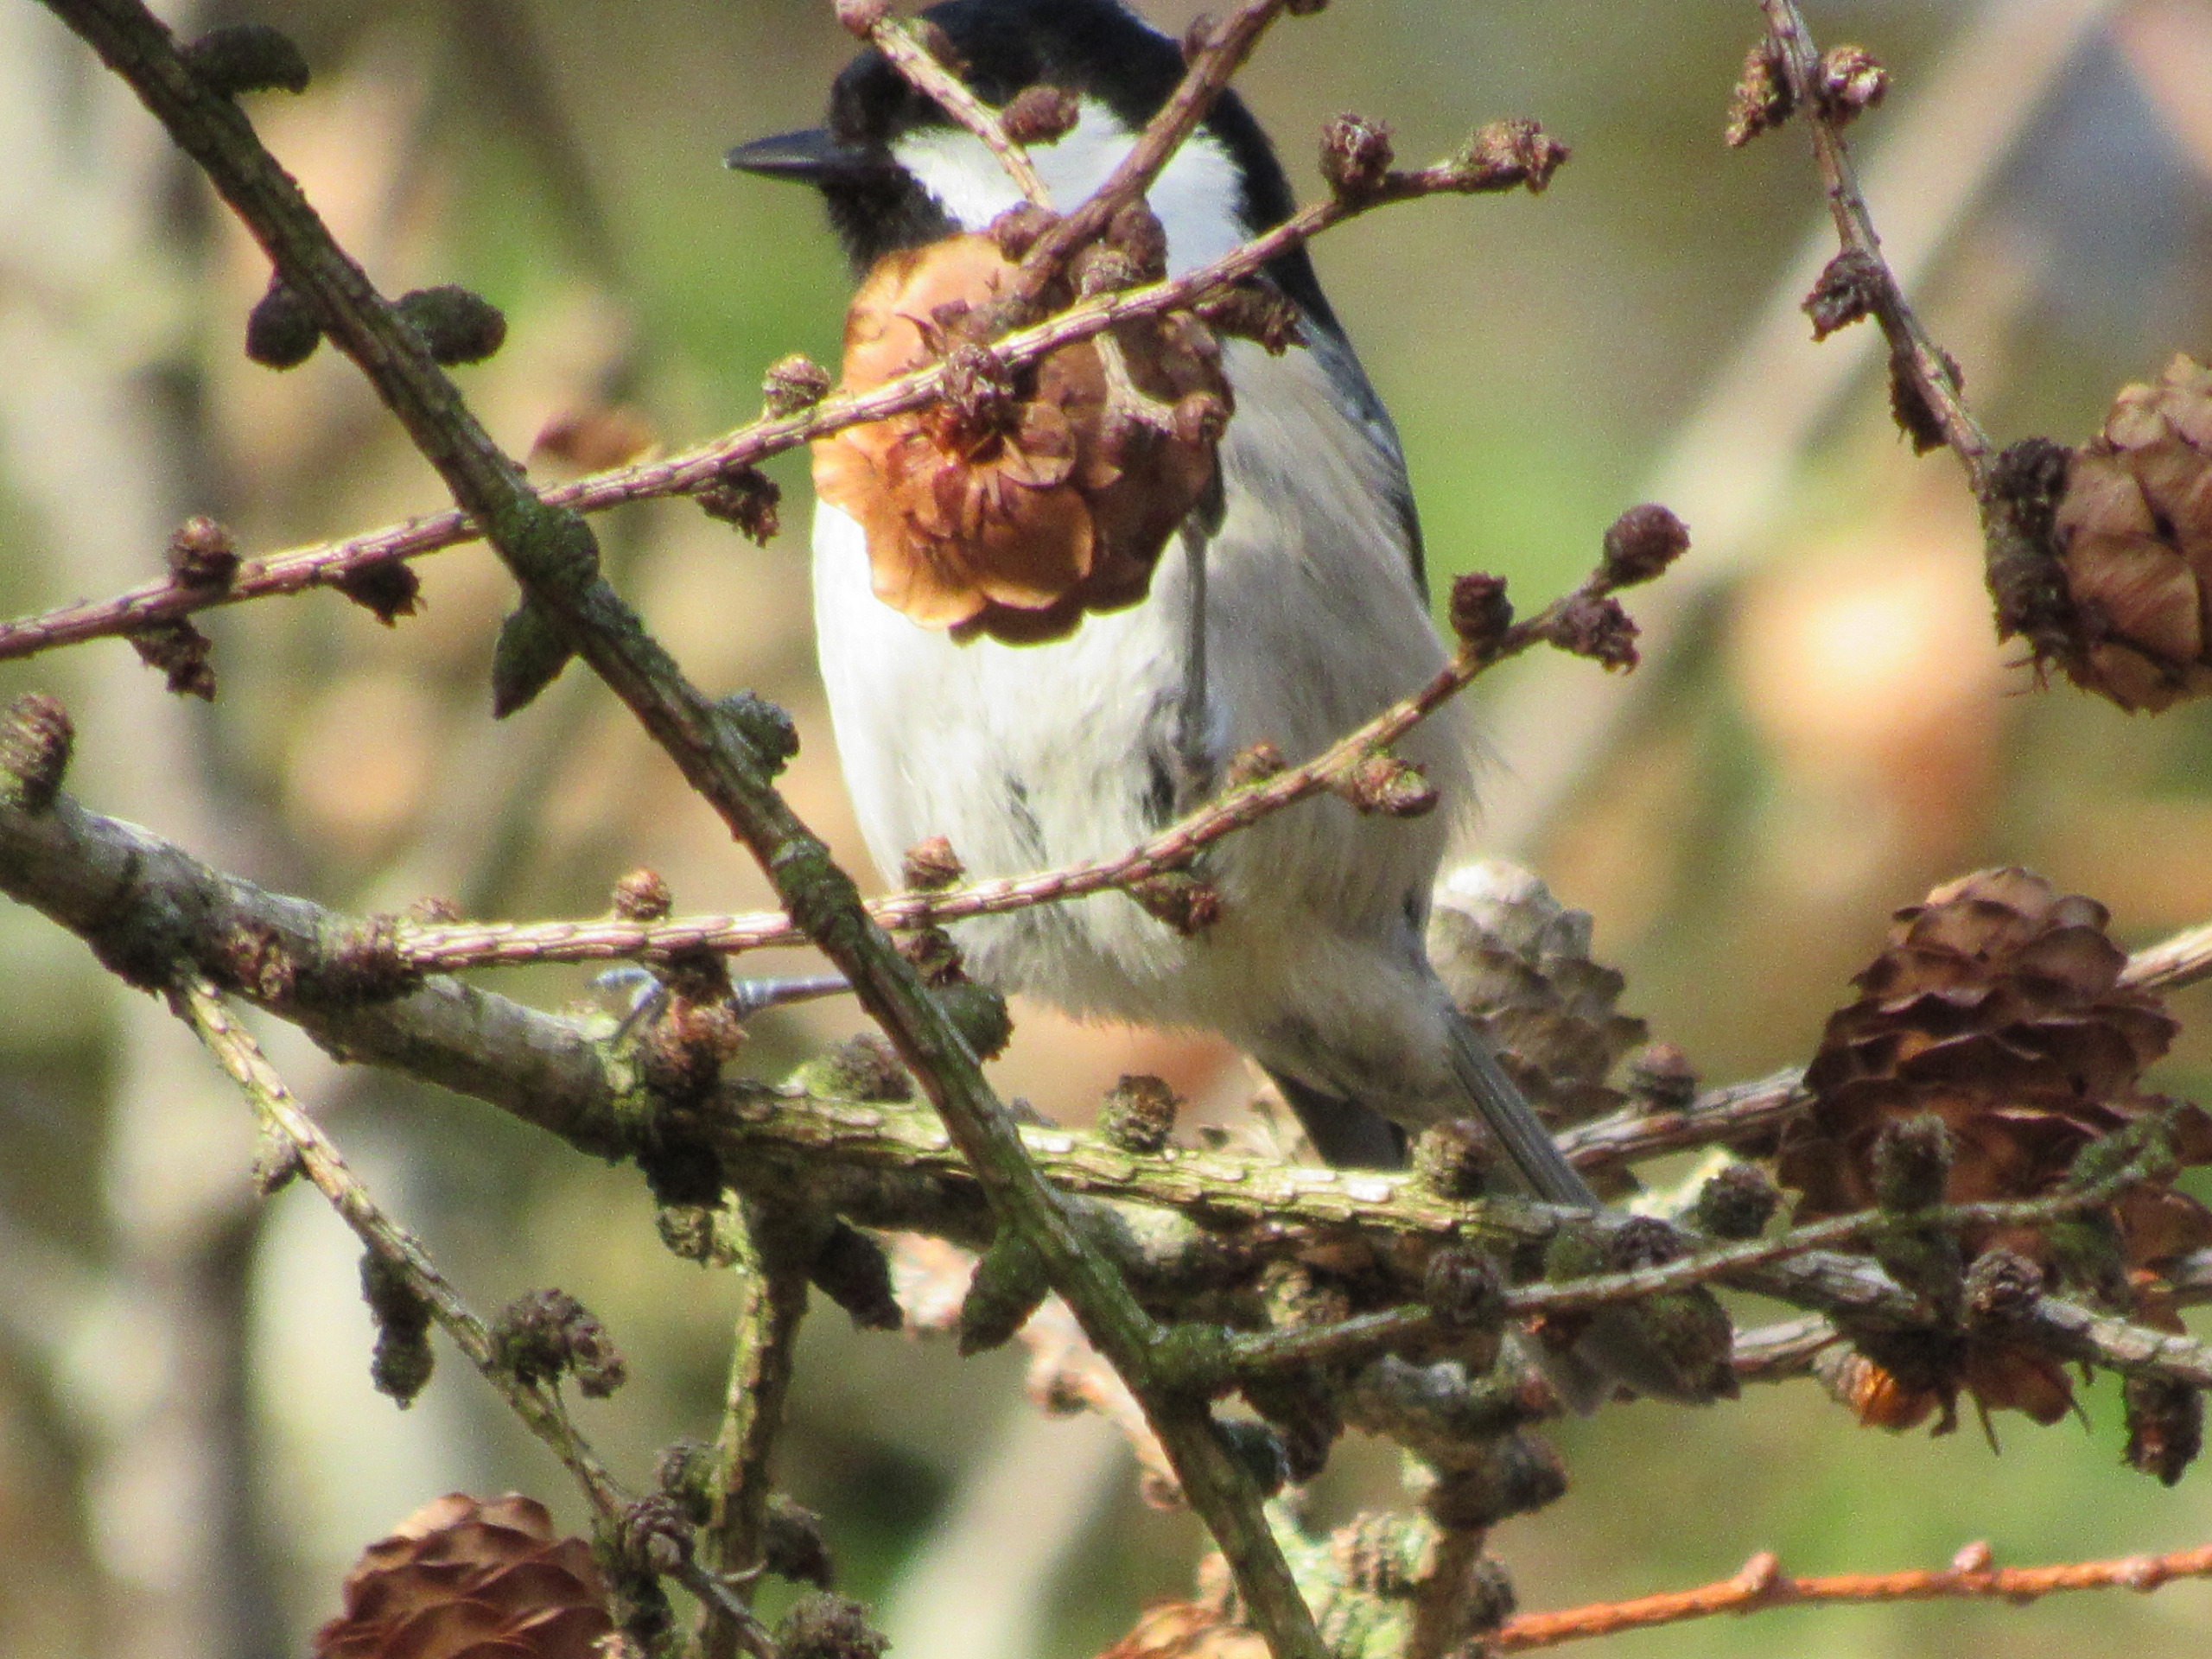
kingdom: Animalia
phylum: Chordata
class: Aves
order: Passeriformes
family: Paridae
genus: Periparus
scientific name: Periparus ater
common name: Sortmejse
